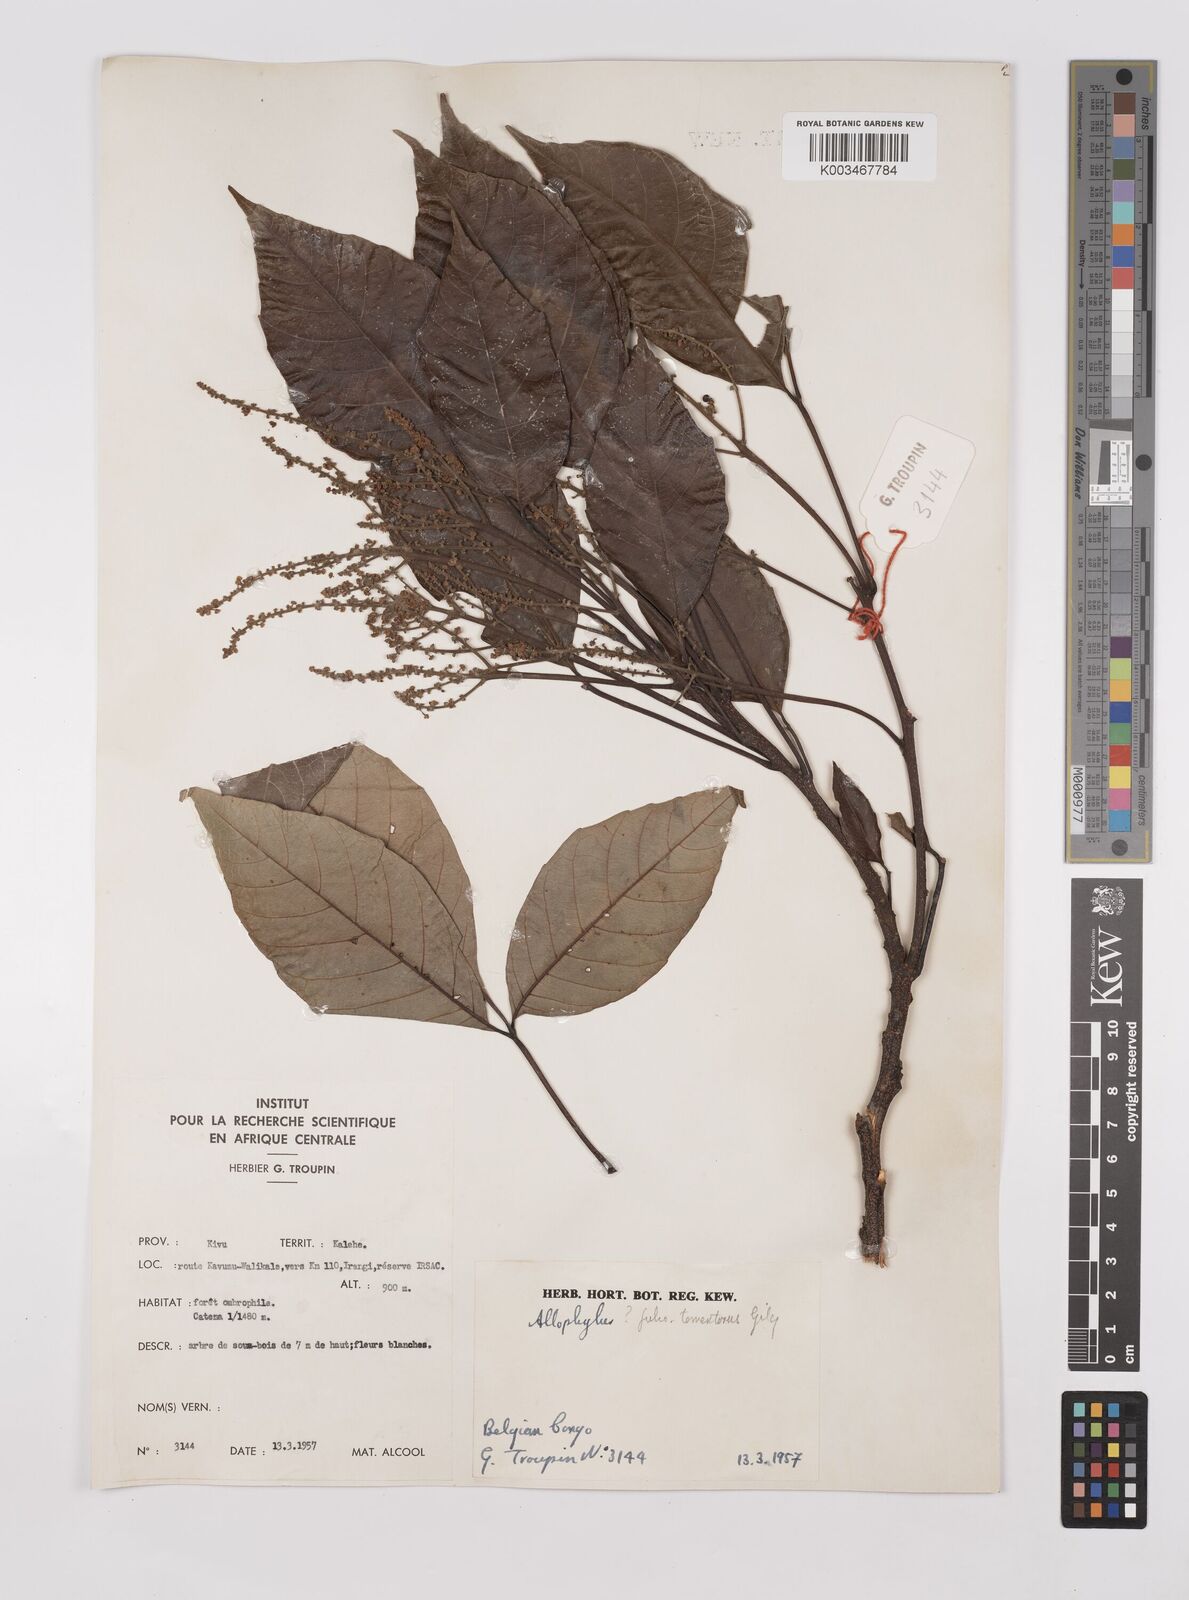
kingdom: Plantae
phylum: Tracheophyta
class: Magnoliopsida
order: Sapindales
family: Sapindaceae
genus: Allophylus
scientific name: Allophylus africanus
